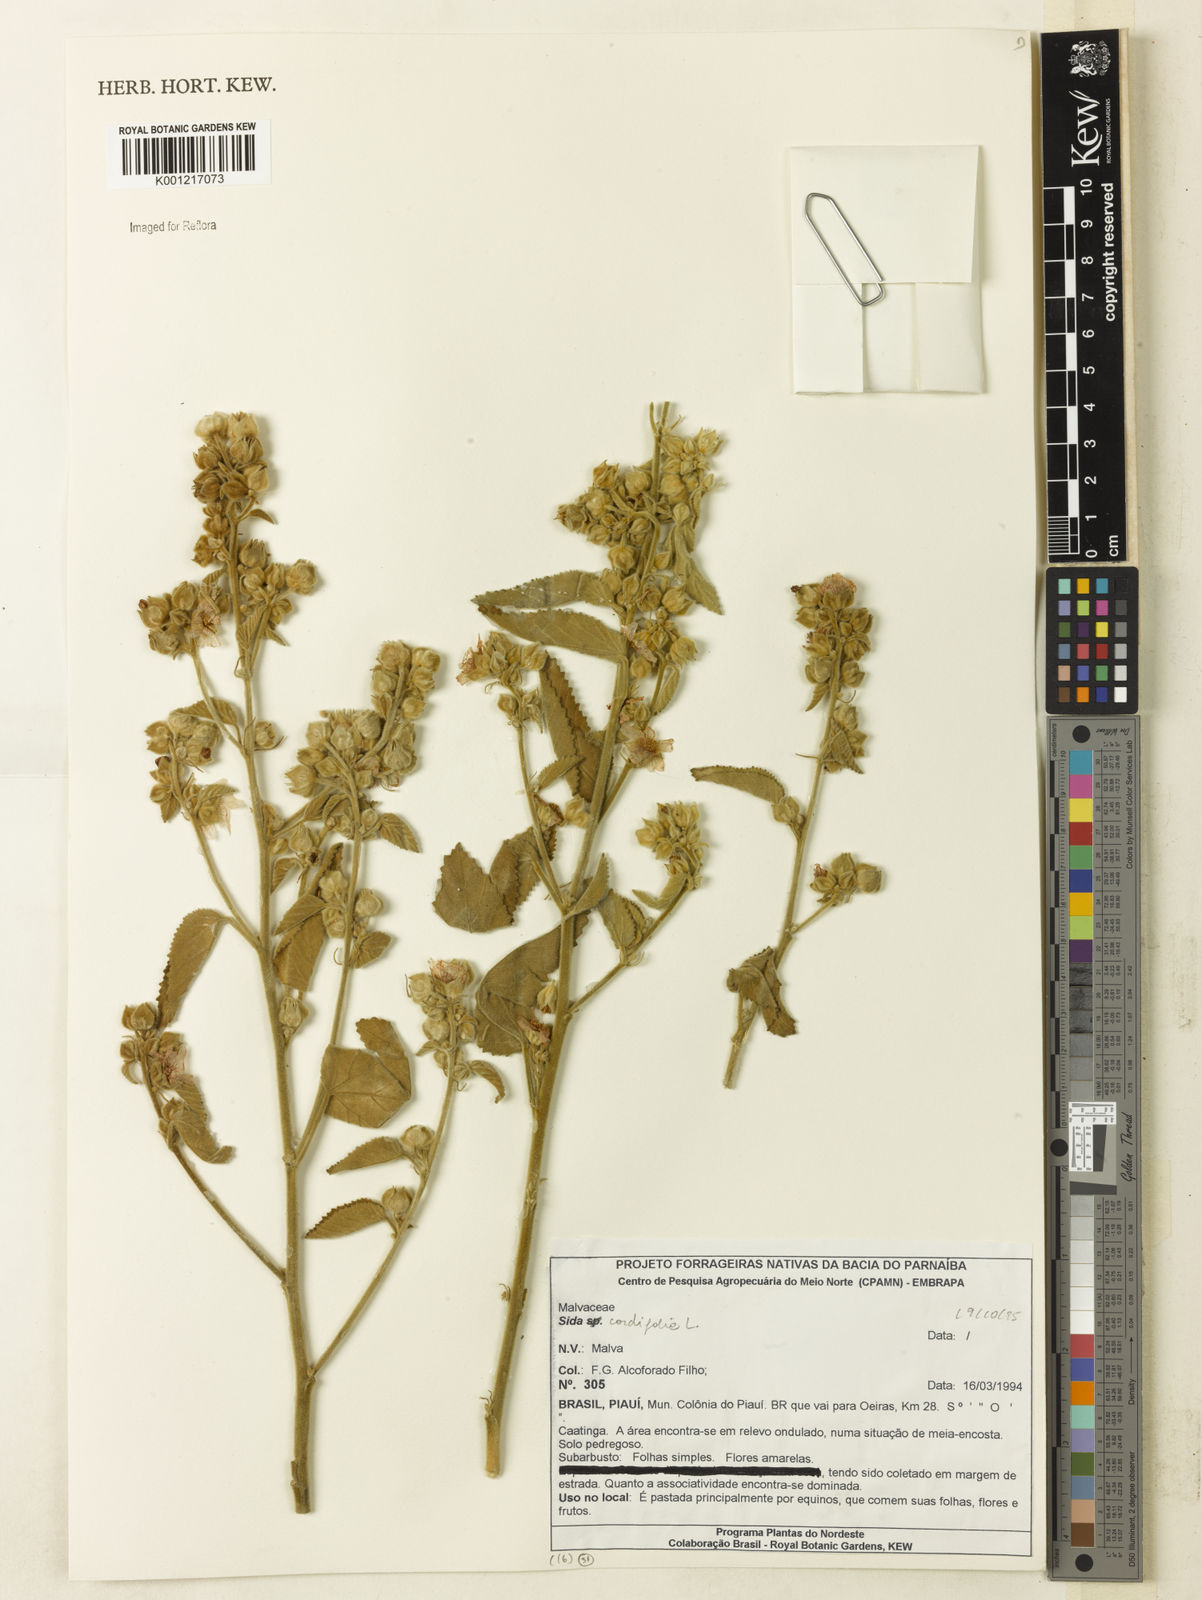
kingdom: Plantae
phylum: Tracheophyta
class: Magnoliopsida
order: Malvales
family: Malvaceae
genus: Sida
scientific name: Sida cordifolia
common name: Ilima
